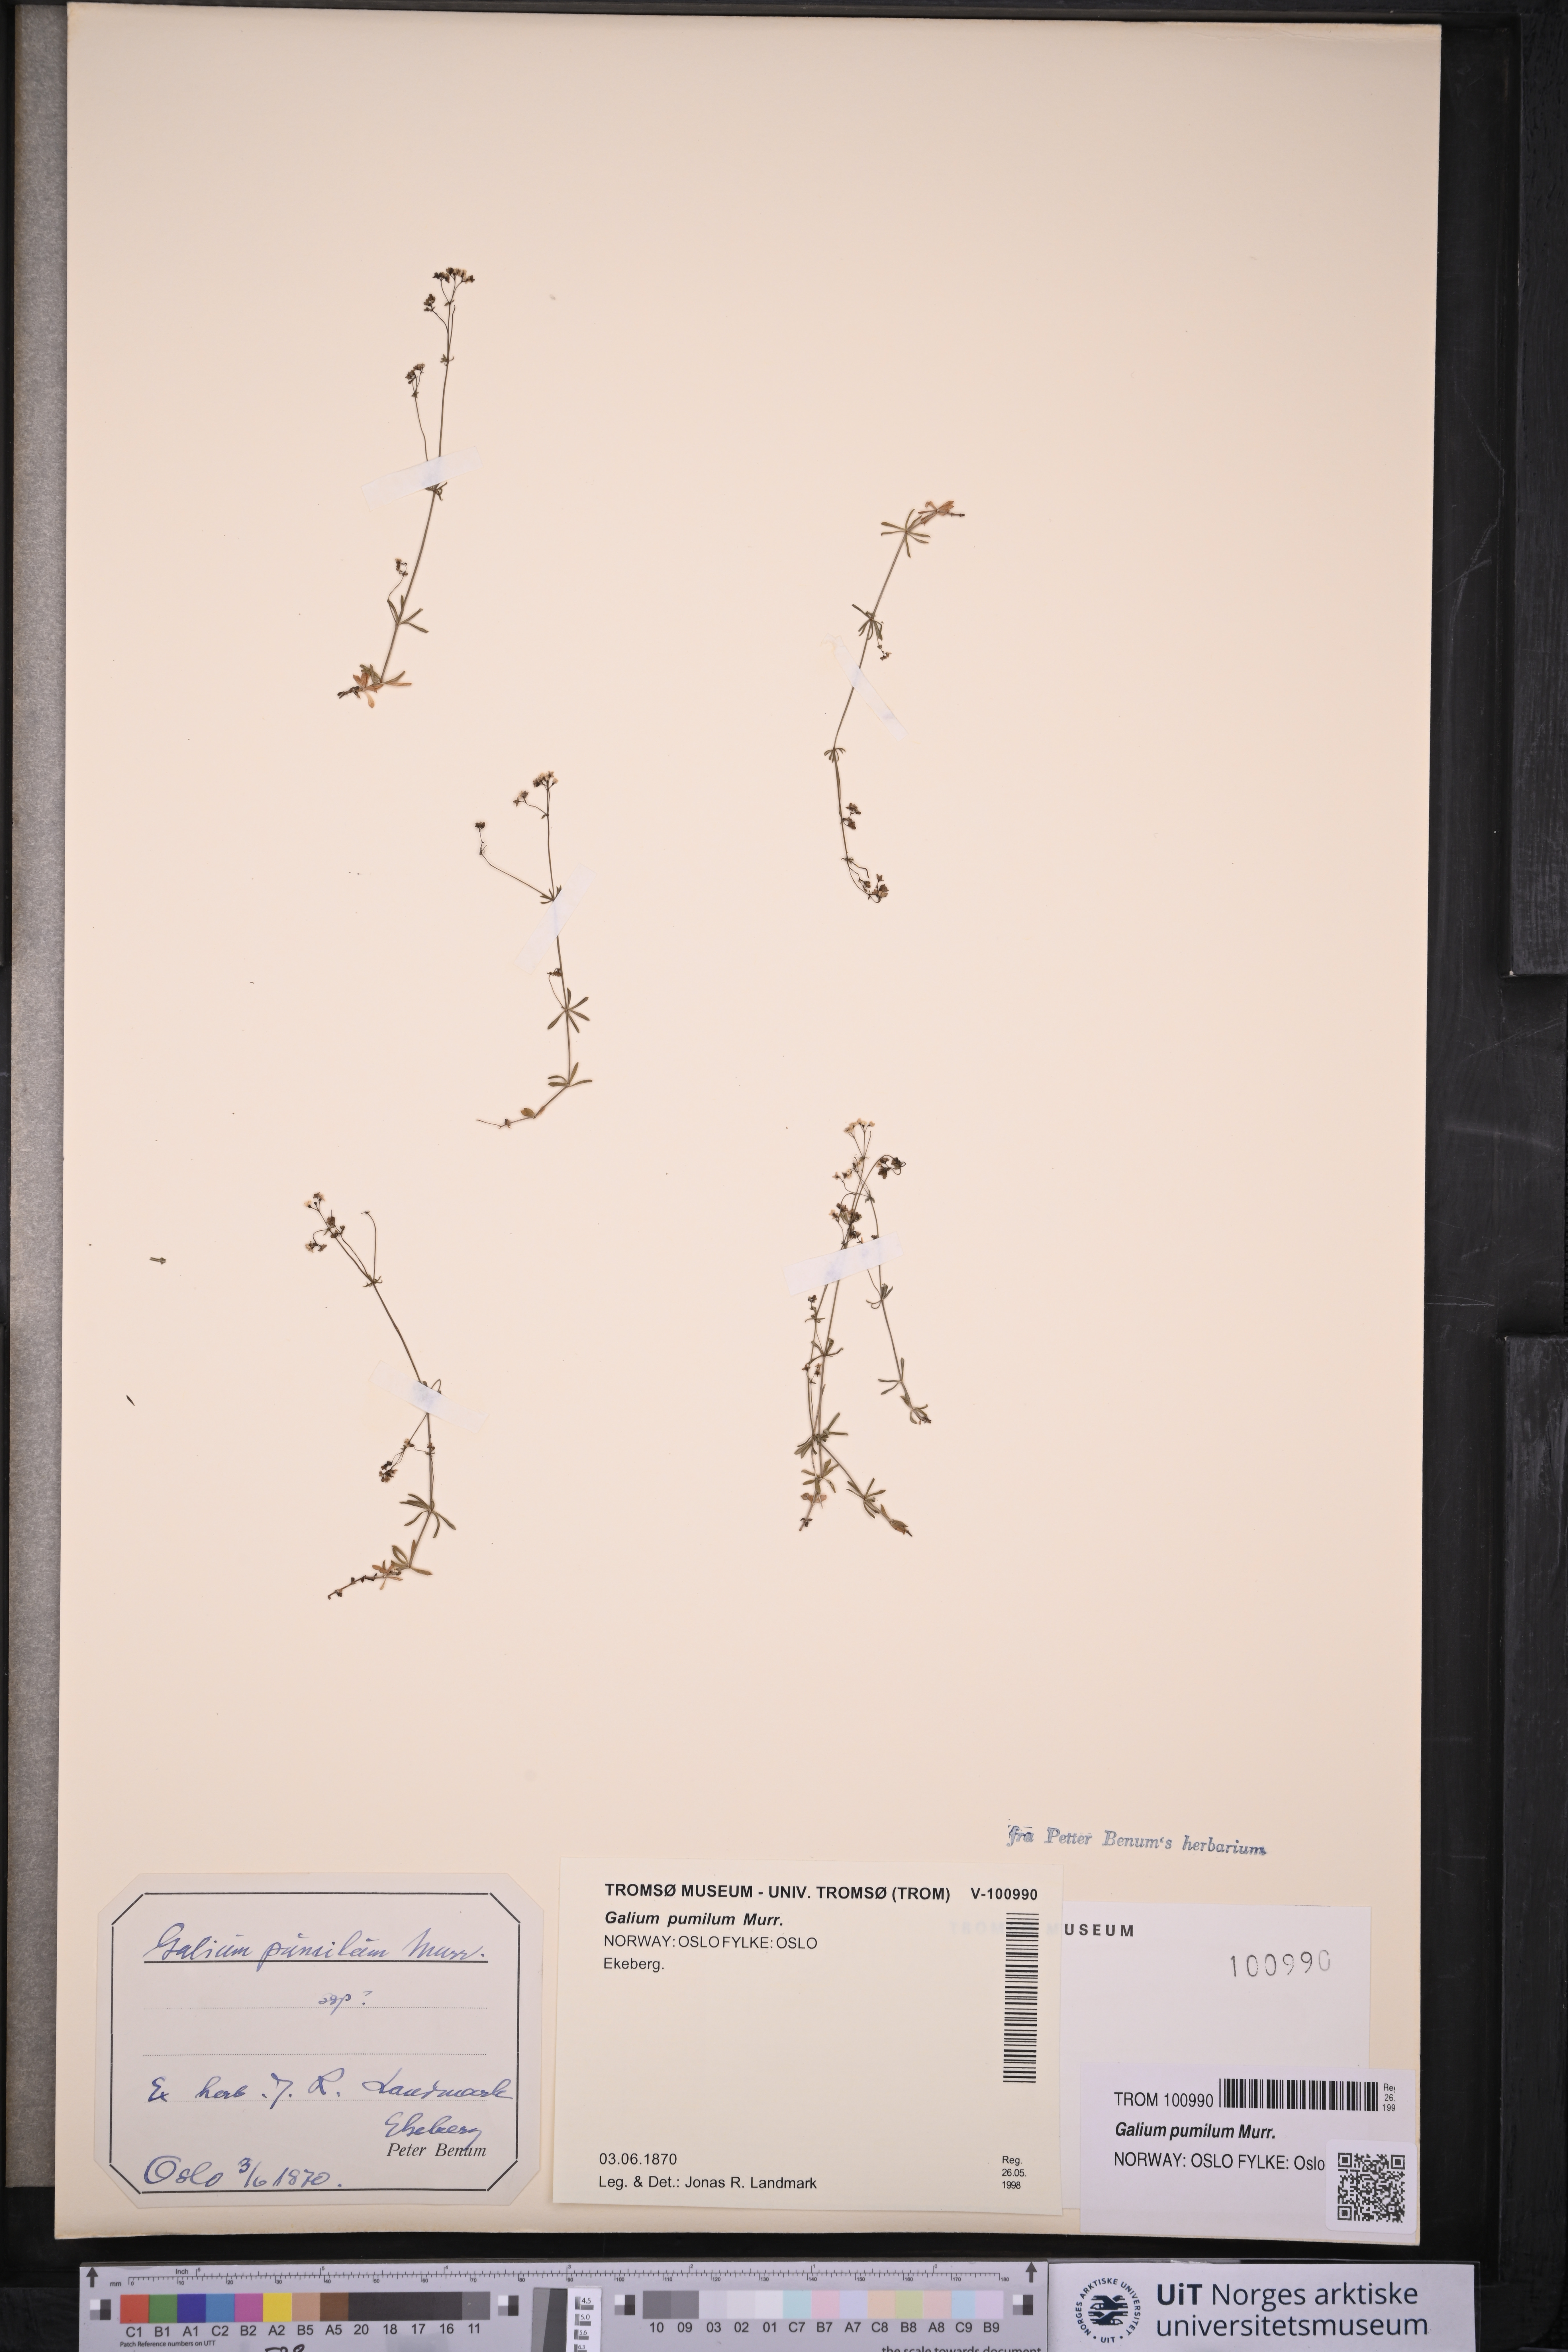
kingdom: Plantae
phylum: Tracheophyta
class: Magnoliopsida
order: Gentianales
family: Rubiaceae
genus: Galium
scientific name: Galium pumilum
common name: Slender bedstraw
